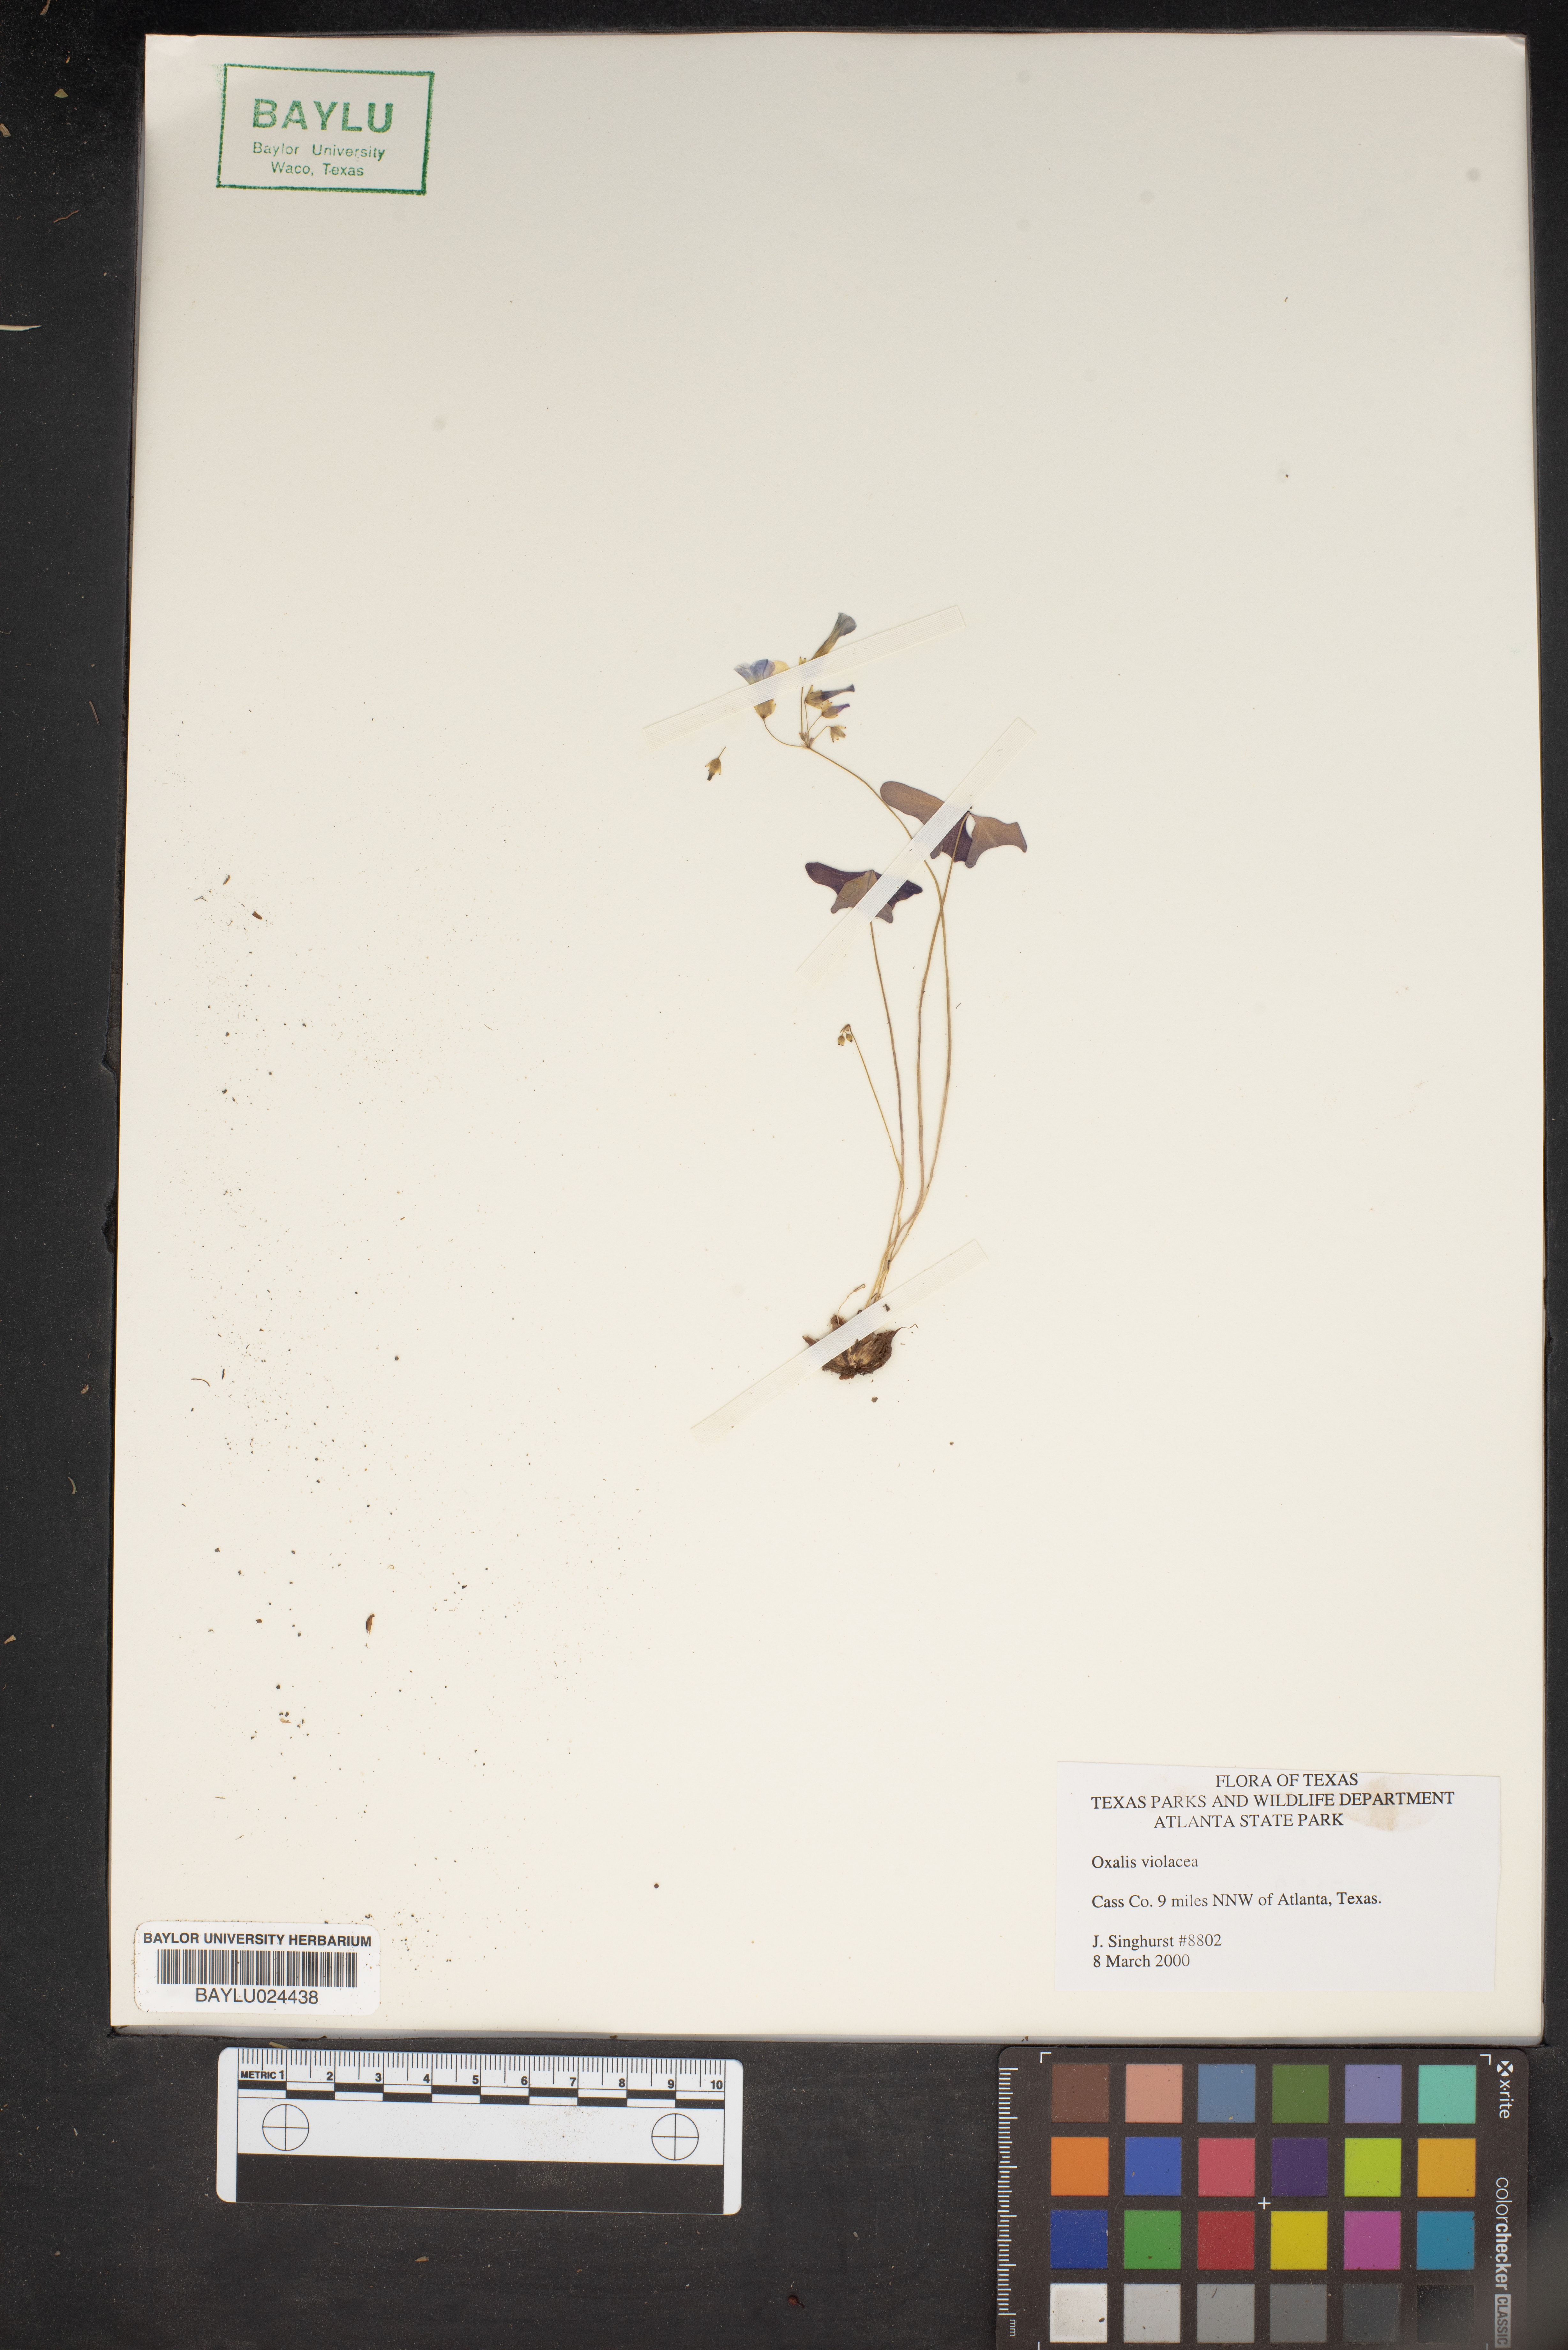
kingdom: Plantae
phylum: Tracheophyta
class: Magnoliopsida
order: Oxalidales
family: Oxalidaceae
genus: Oxalis
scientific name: Oxalis violacea
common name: Violet wood-sorrel
